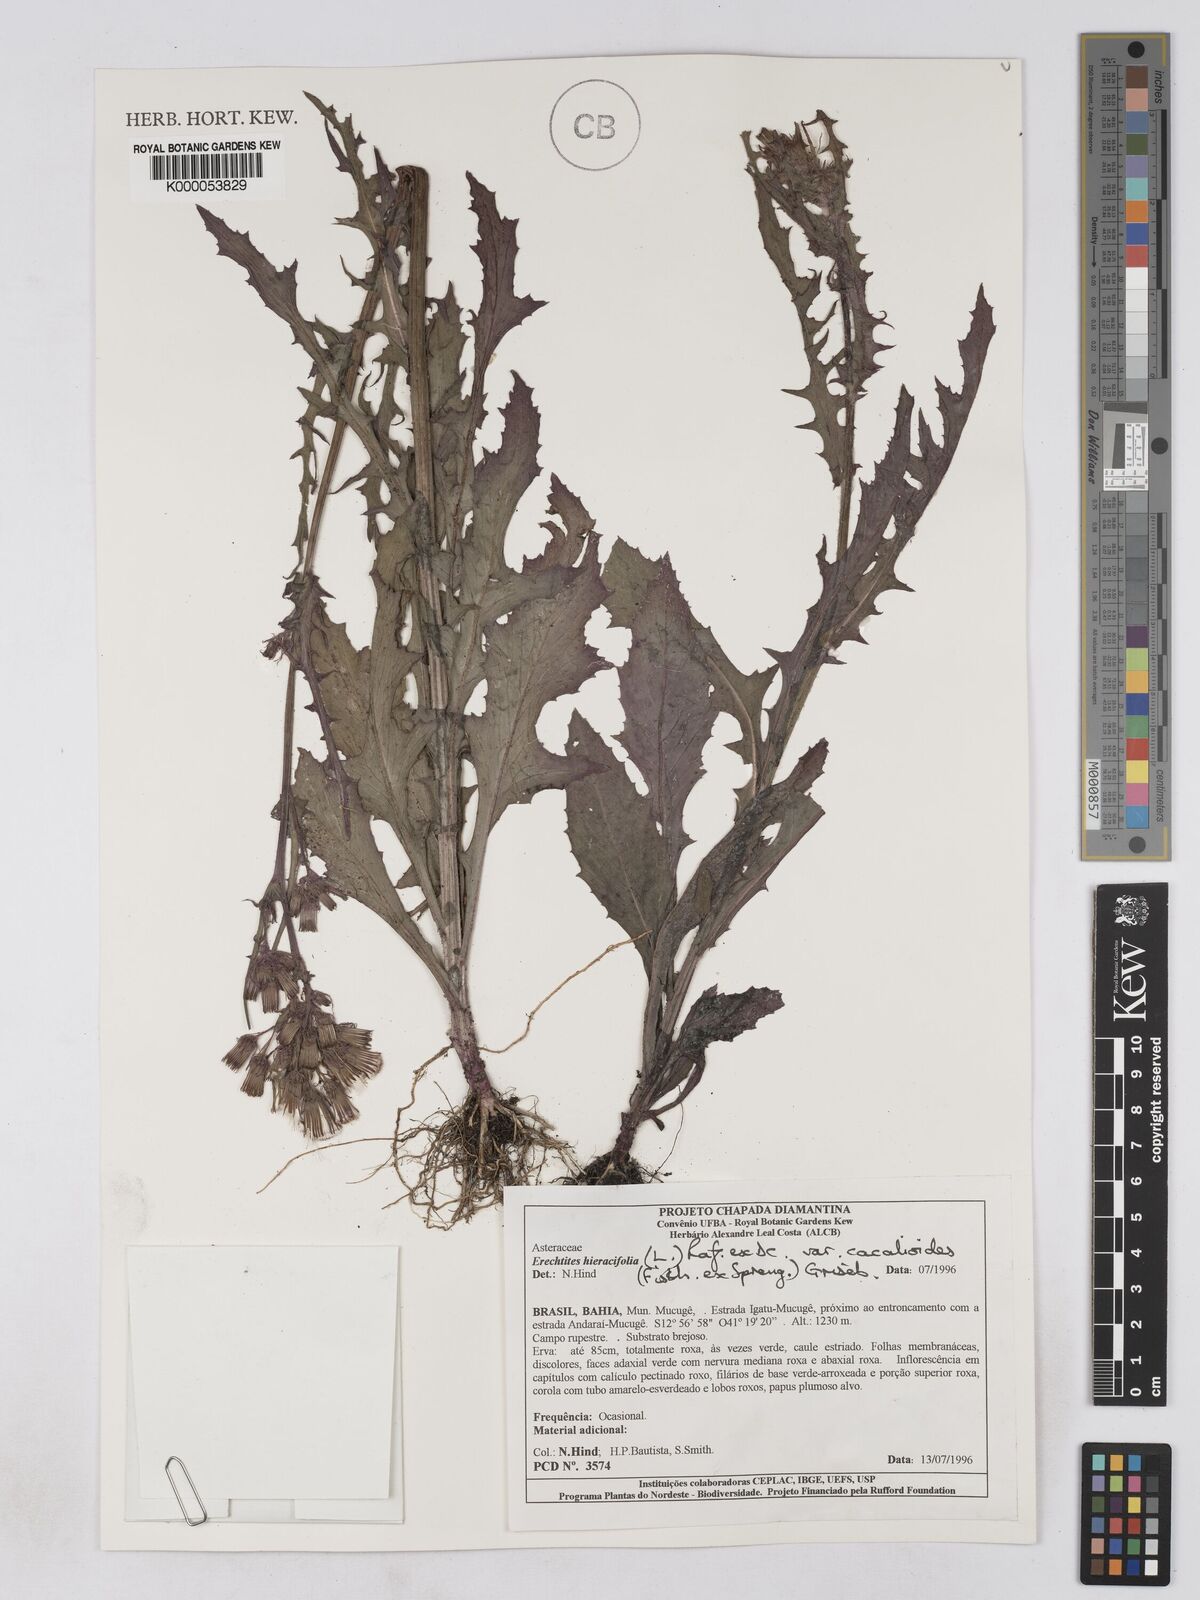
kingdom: Plantae
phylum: Tracheophyta
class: Magnoliopsida
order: Asterales
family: Asteraceae
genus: Erechtites
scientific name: Erechtites hieraciifolius
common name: American burnweed
